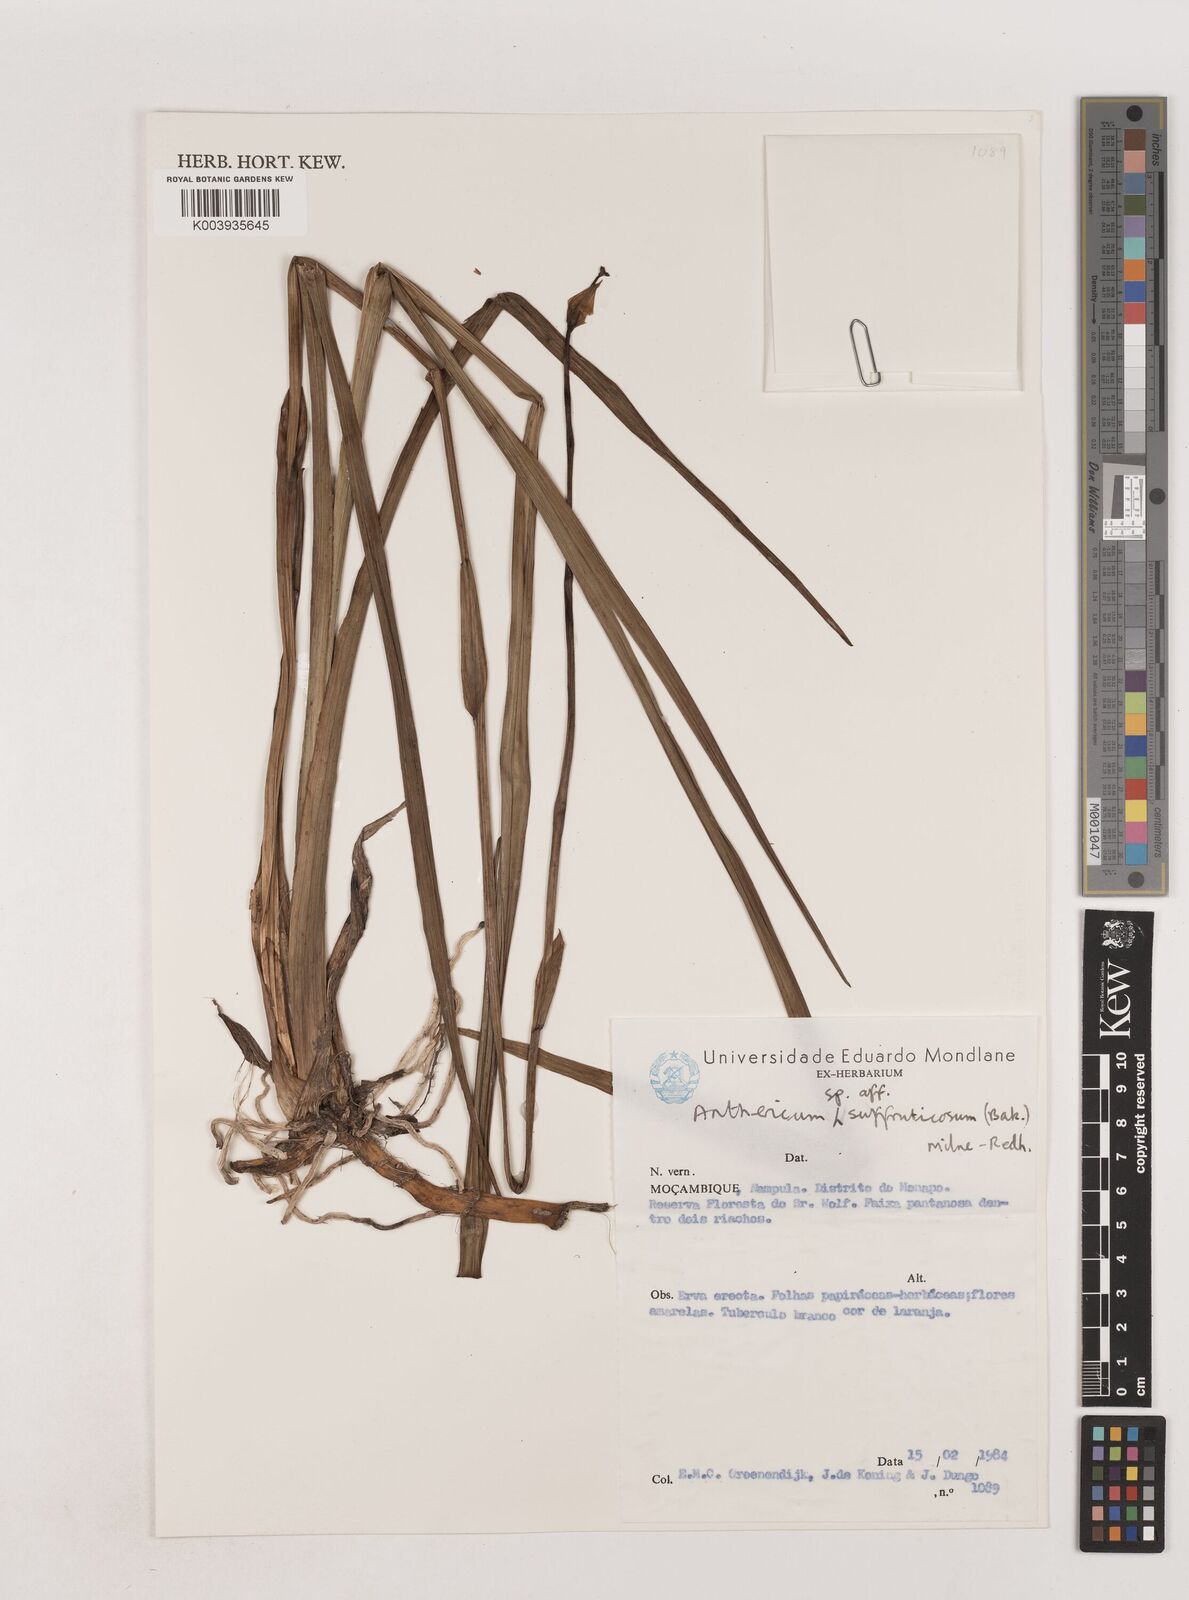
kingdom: Plantae
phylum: Tracheophyta
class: Liliopsida
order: Asparagales
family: Asparagaceae
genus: Chlorophytum
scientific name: Chlorophytum suffruticosum
